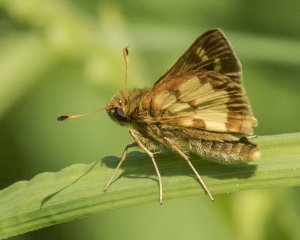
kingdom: Animalia
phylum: Arthropoda
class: Insecta
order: Lepidoptera
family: Hesperiidae
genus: Polites
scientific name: Polites coras
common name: Peck's Skipper
